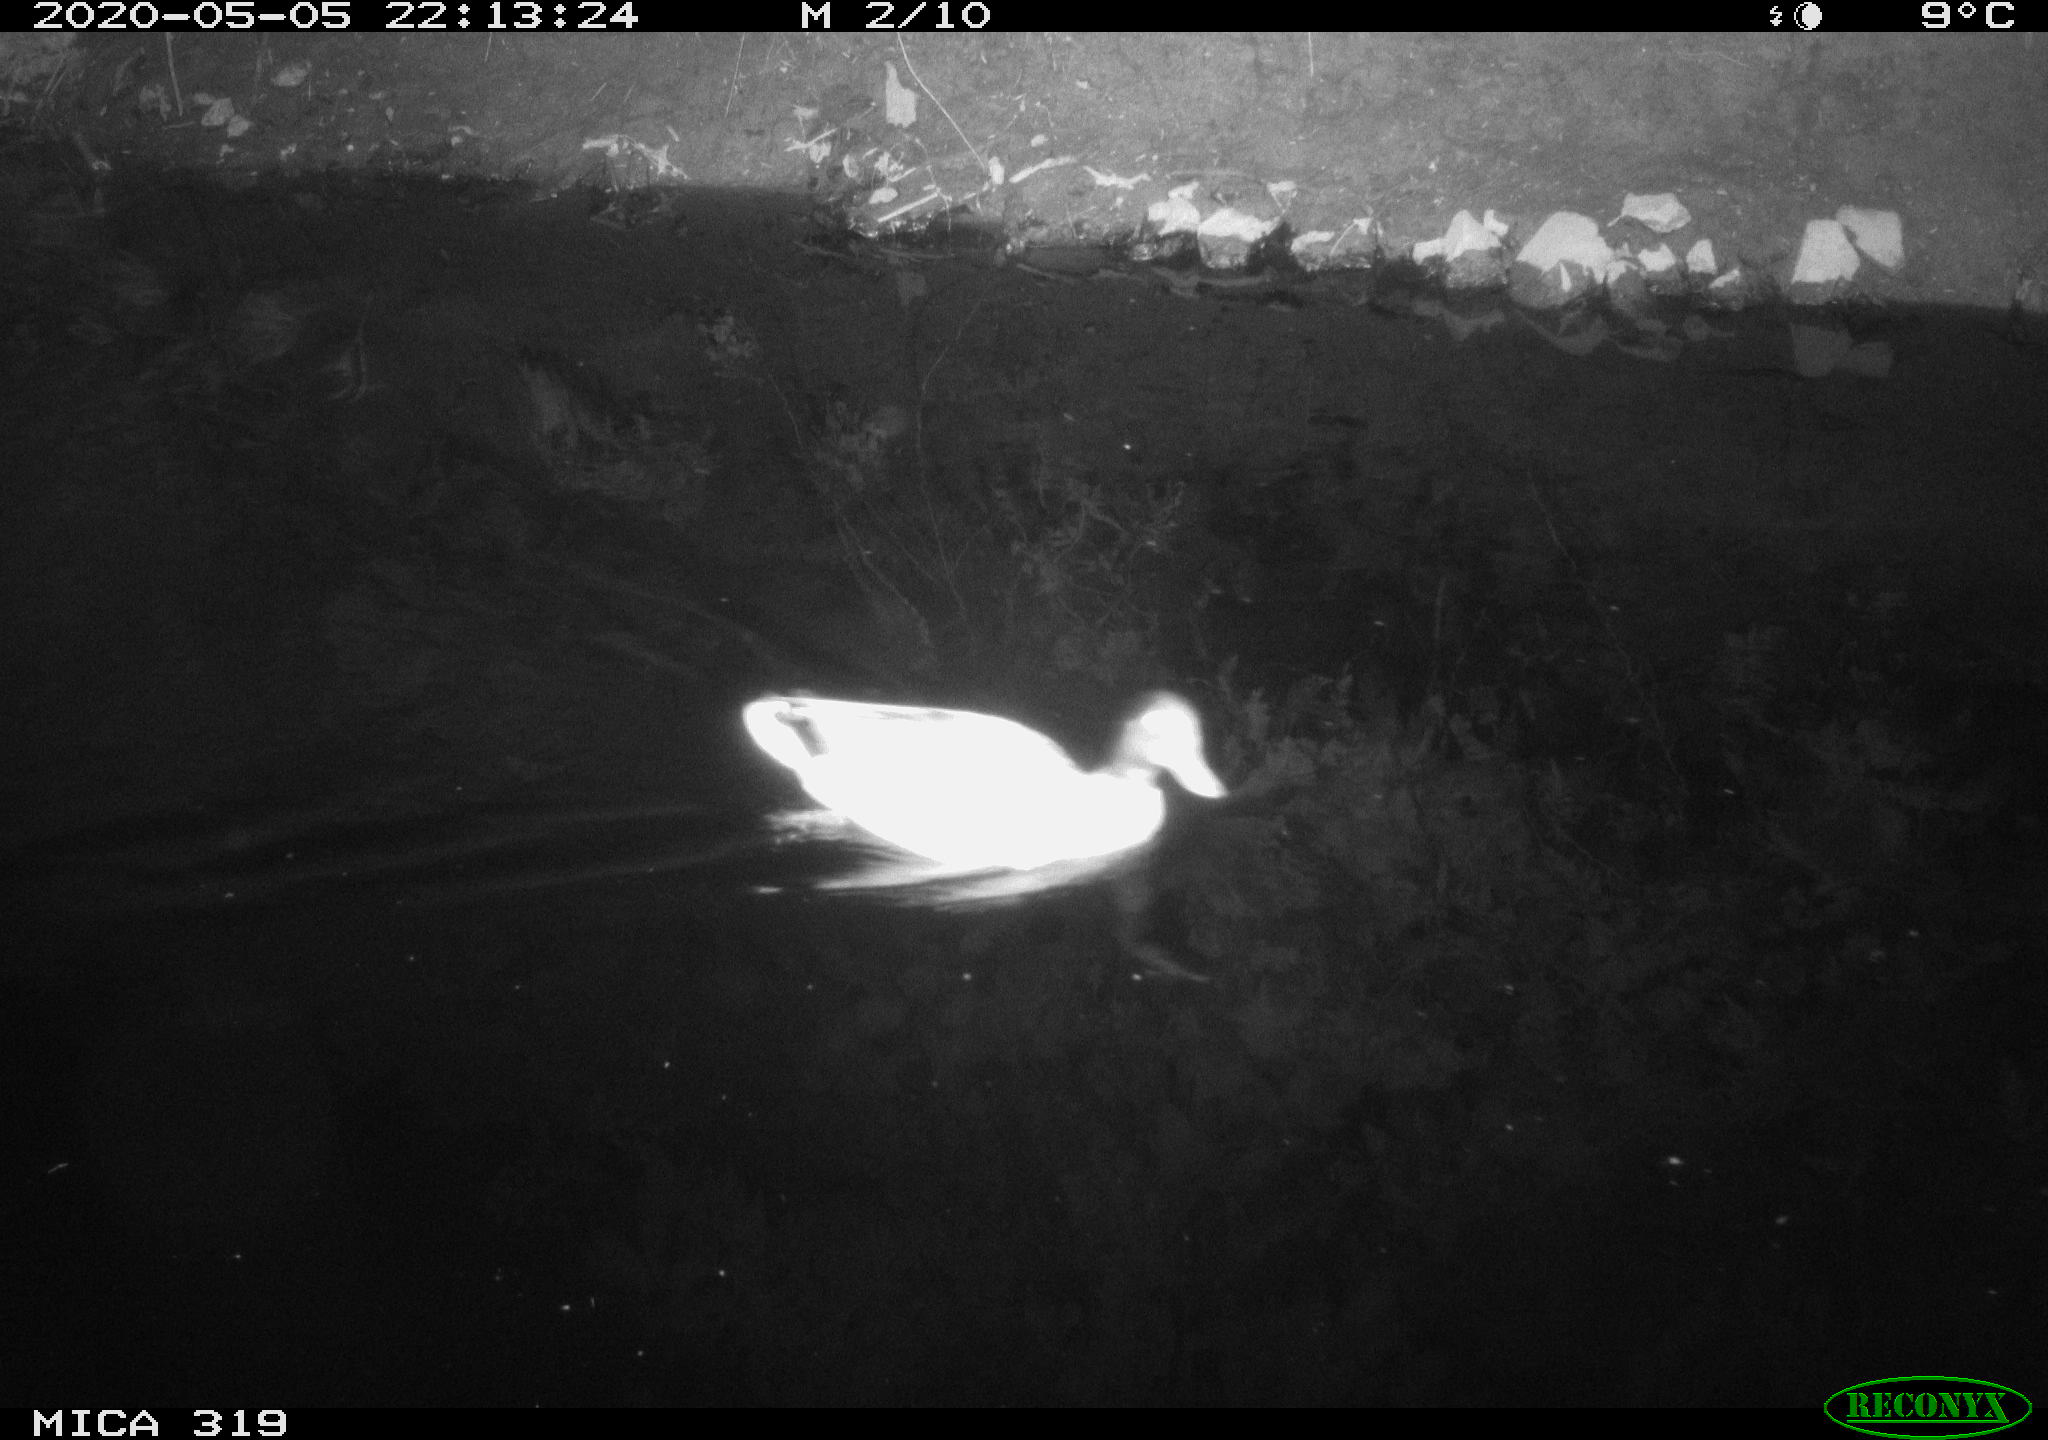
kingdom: Animalia
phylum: Chordata
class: Aves
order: Anseriformes
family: Anatidae
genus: Anas
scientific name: Anas platyrhynchos
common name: Mallard
